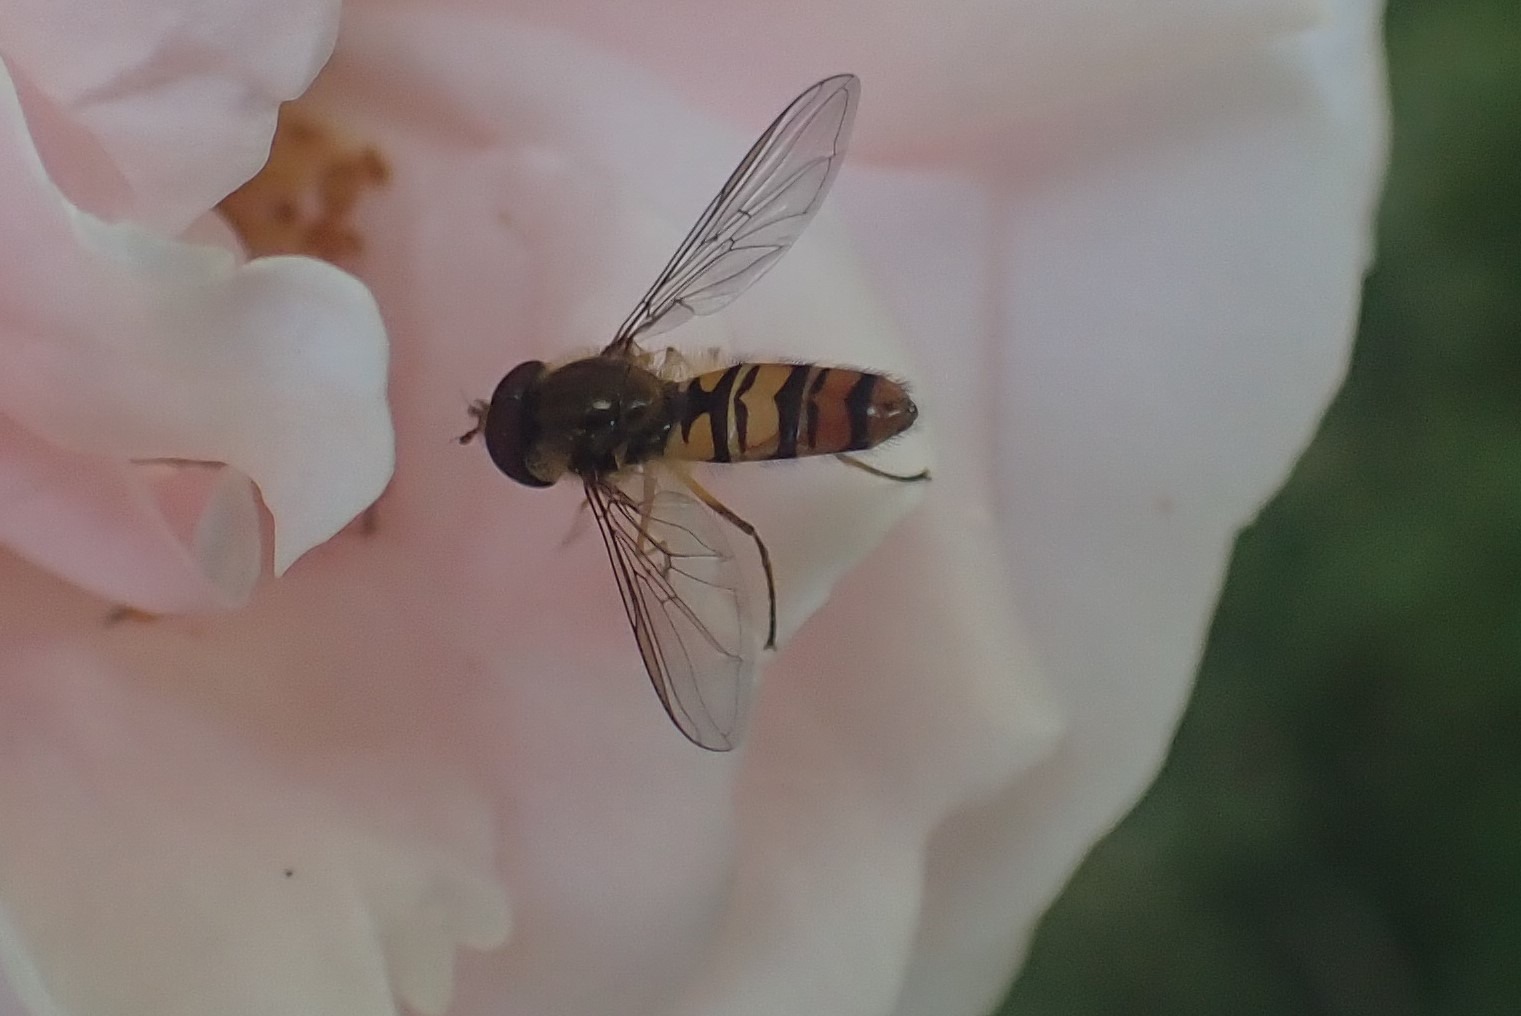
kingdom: Animalia
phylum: Arthropoda
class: Insecta
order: Diptera
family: Syrphidae
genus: Episyrphus
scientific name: Episyrphus balteatus
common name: Dobbeltbåndet svirreflue
